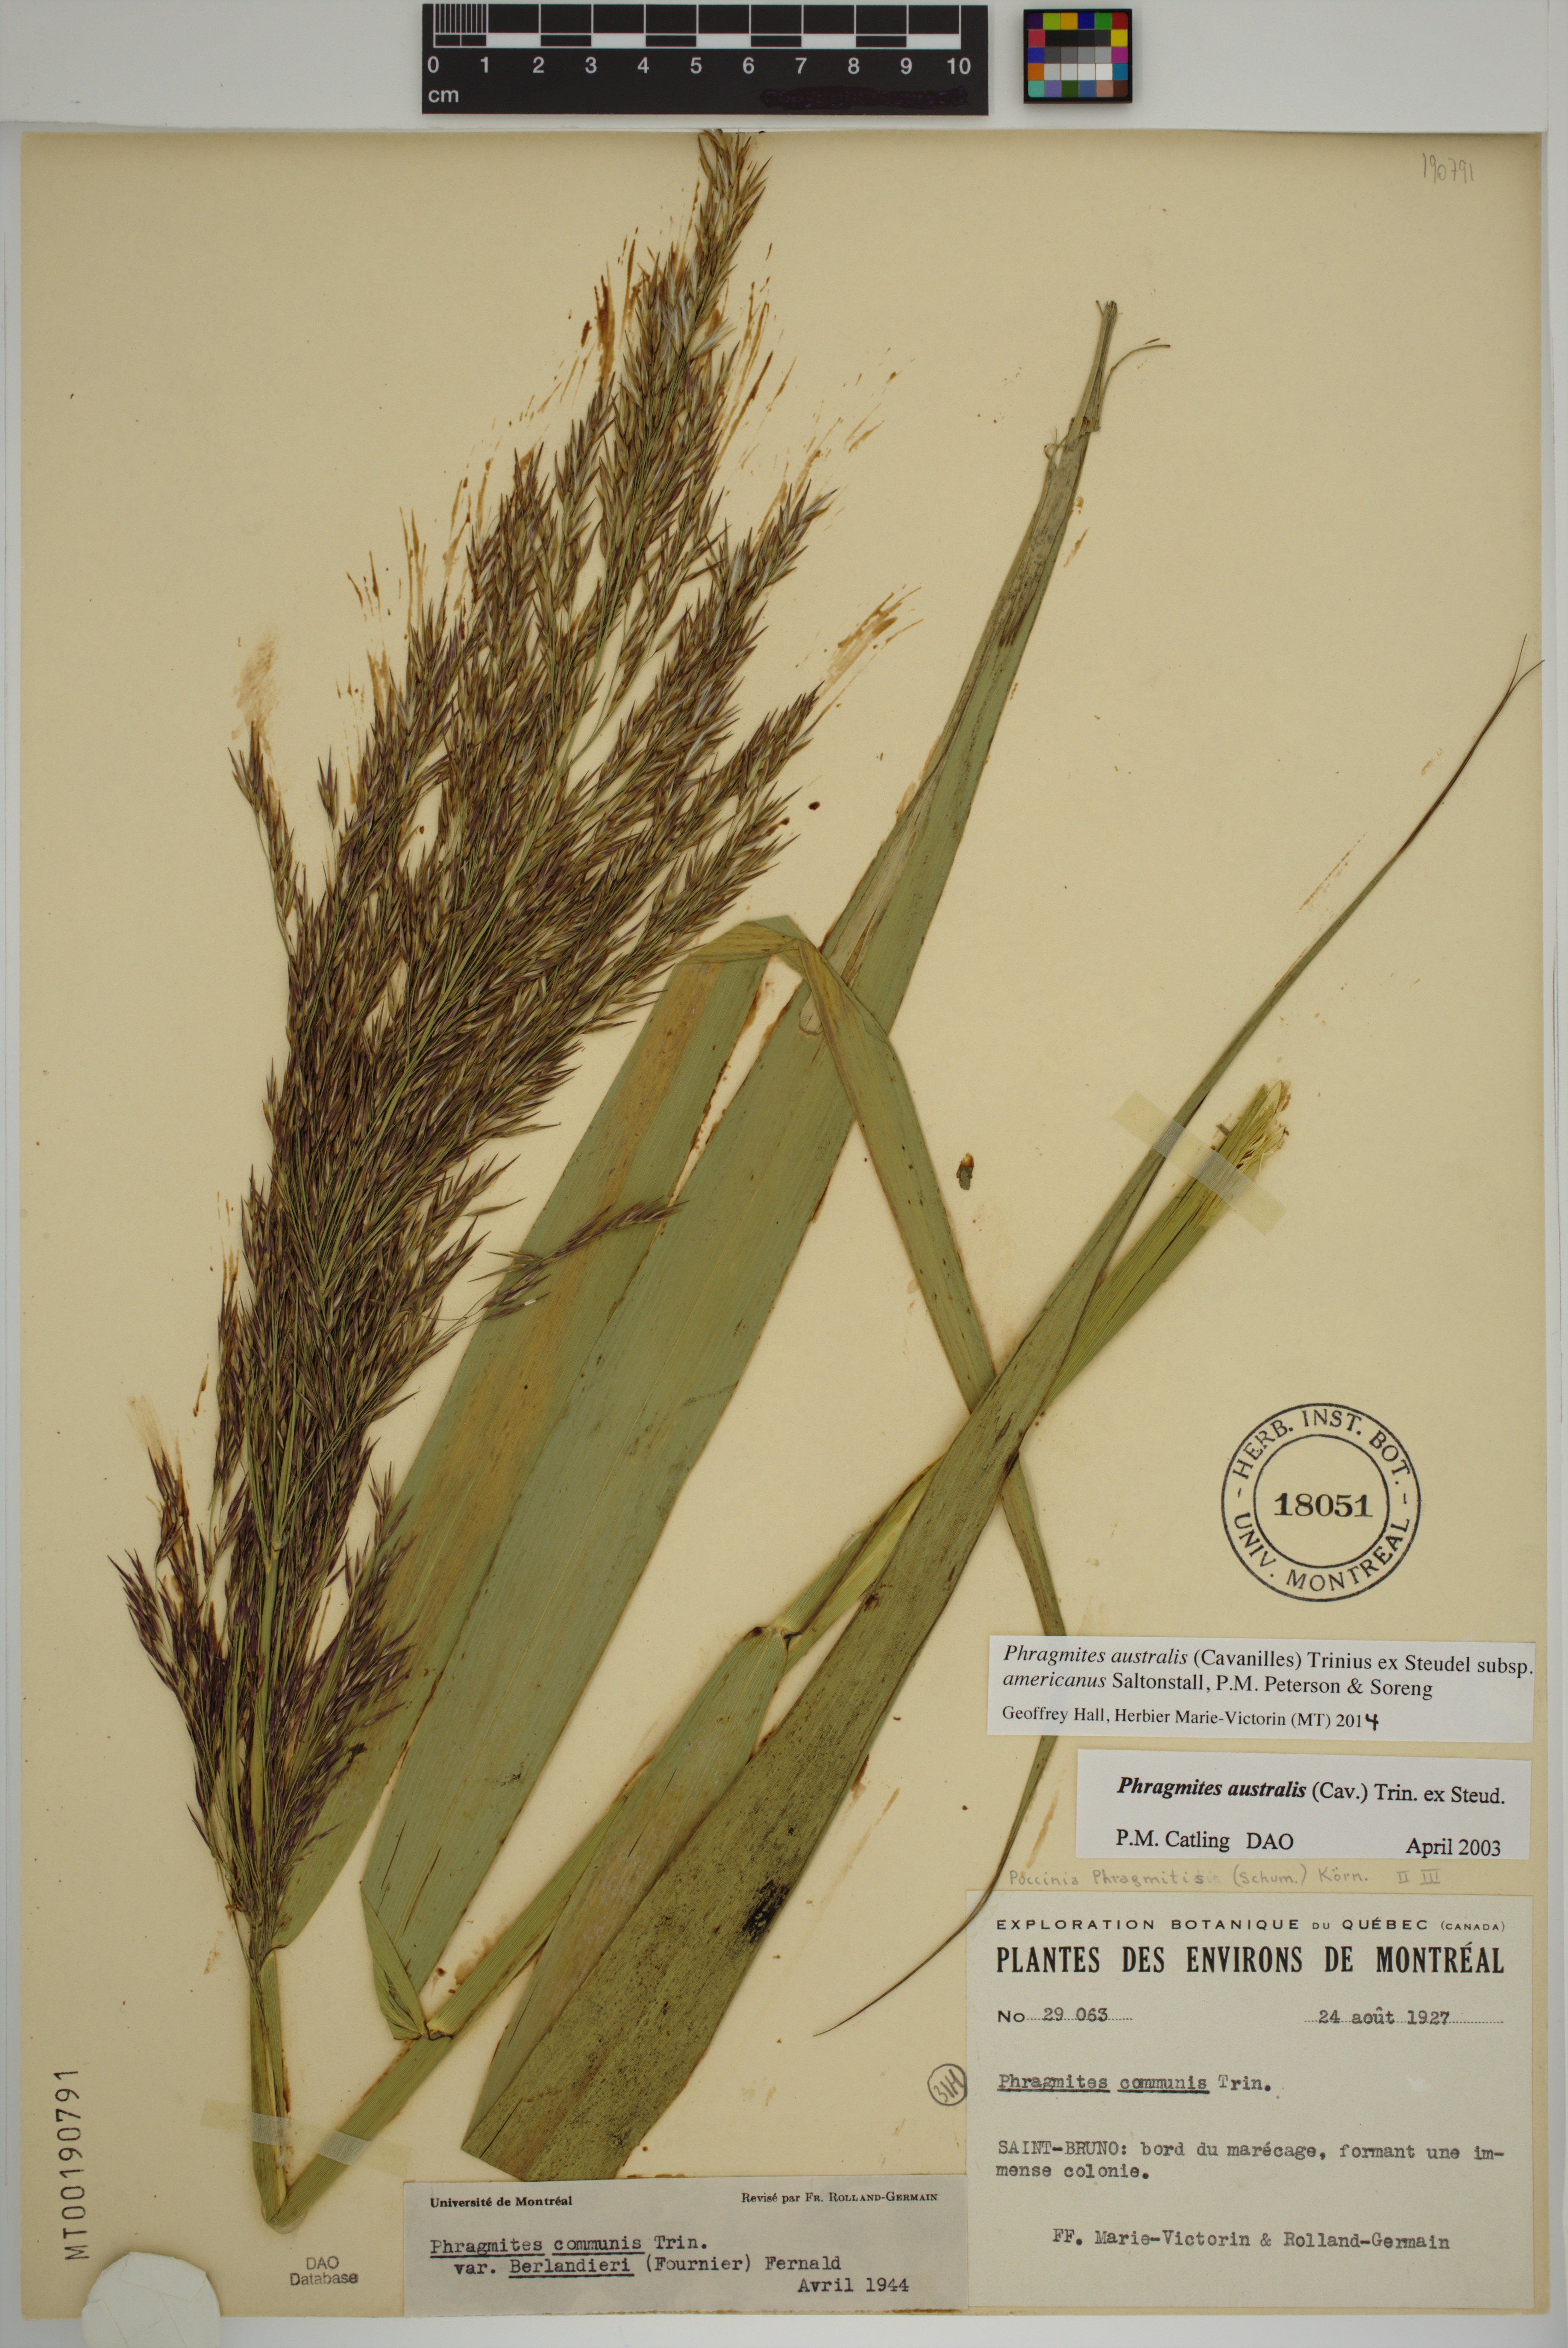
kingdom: Plantae
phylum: Tracheophyta
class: Liliopsida
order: Poales
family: Poaceae
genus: Phragmites
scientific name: Phragmites australis
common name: Common reed
